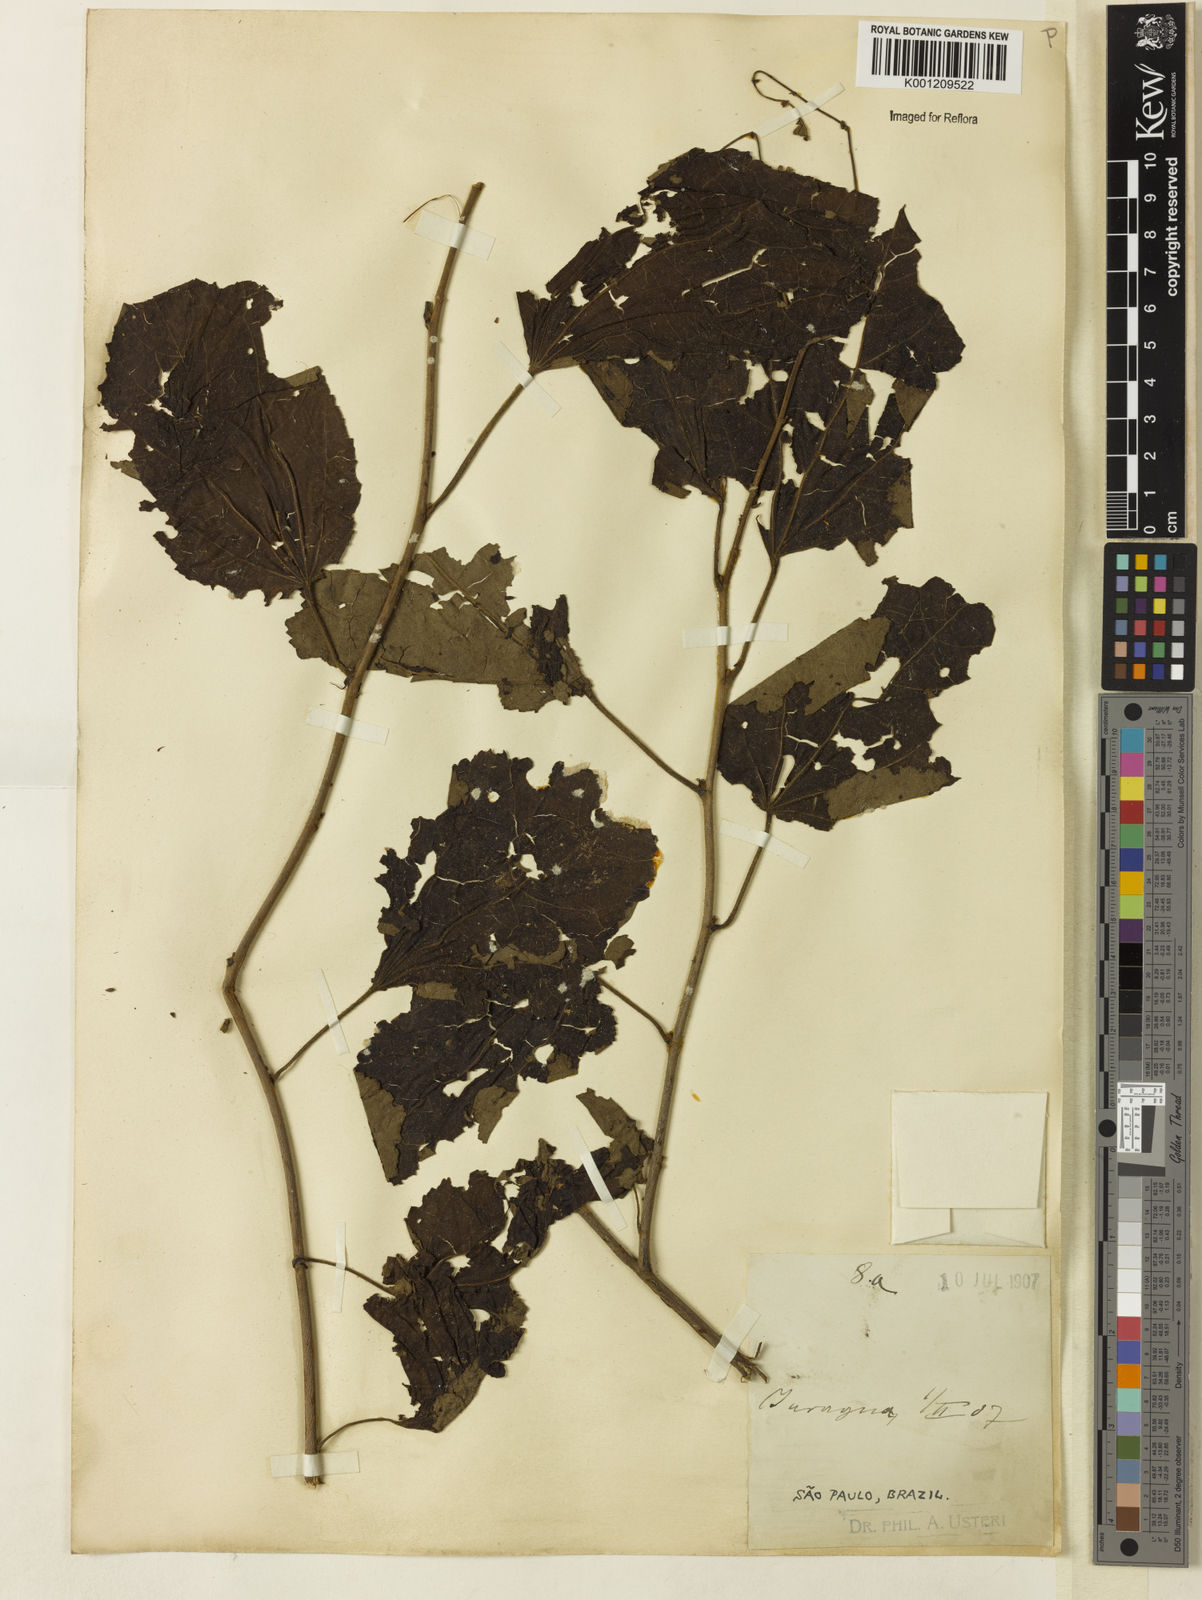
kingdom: Plantae
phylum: Tracheophyta
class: Magnoliopsida
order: Malvales
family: Malvaceae
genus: Triumfetta
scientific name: Triumfetta semitriloba
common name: Sacramento burbark
